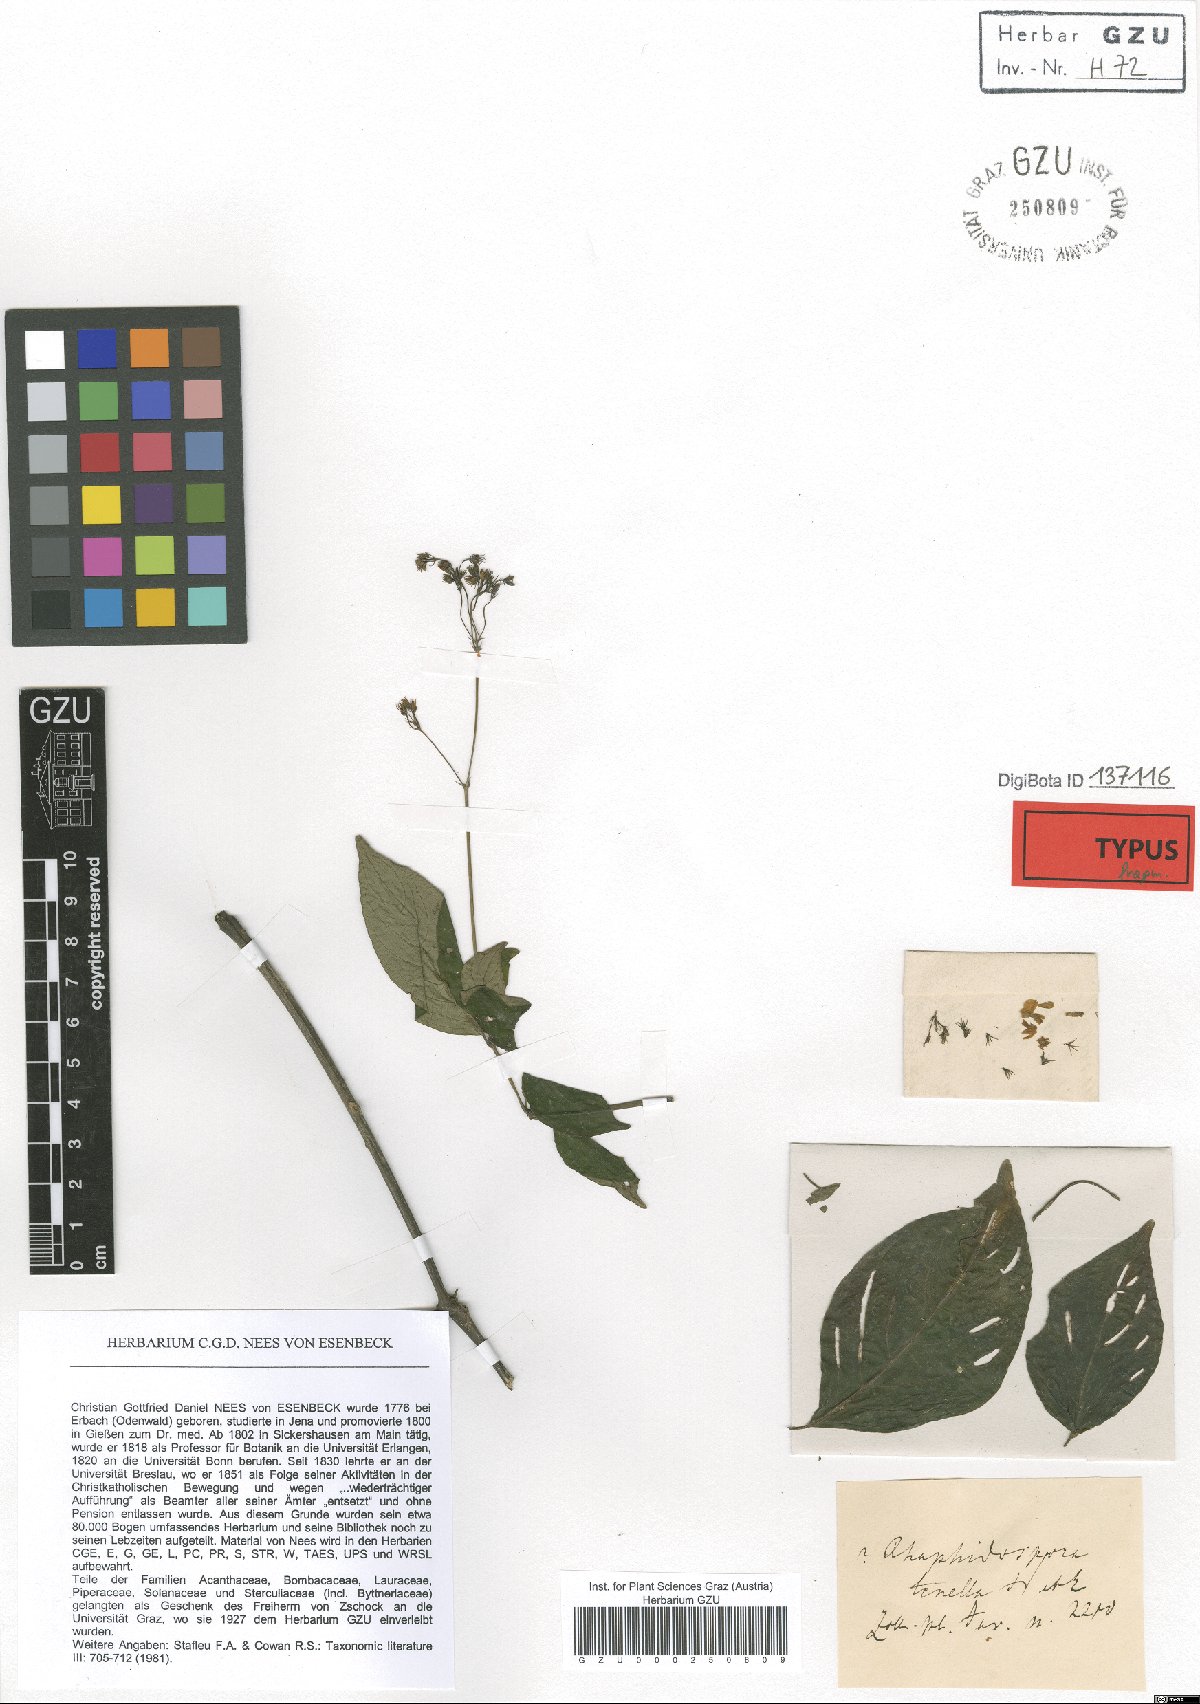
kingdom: Plantae
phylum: Tracheophyta
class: Magnoliopsida
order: Lamiales
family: Acanthaceae
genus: Isoglossa
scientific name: Isoglossa dichotoma
